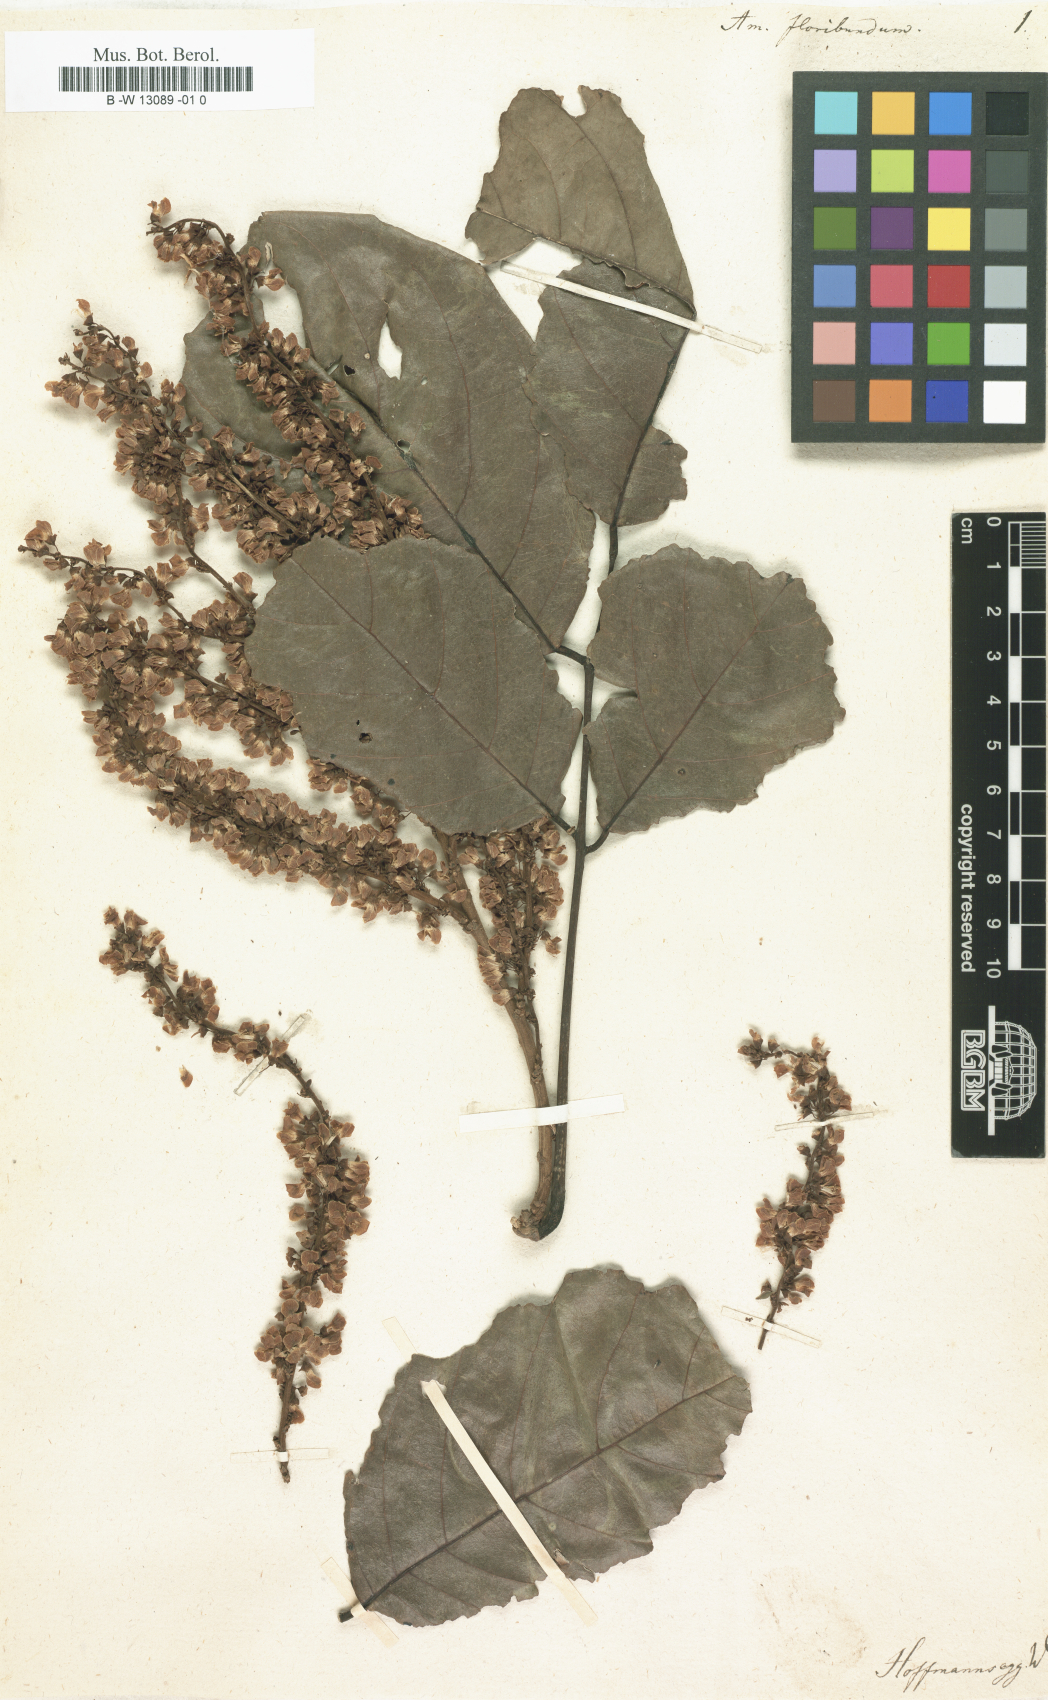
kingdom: Plantae
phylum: Tracheophyta
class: Magnoliopsida
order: Fabales
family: Fabaceae
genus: Amerimnum
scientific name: Amerimnum
